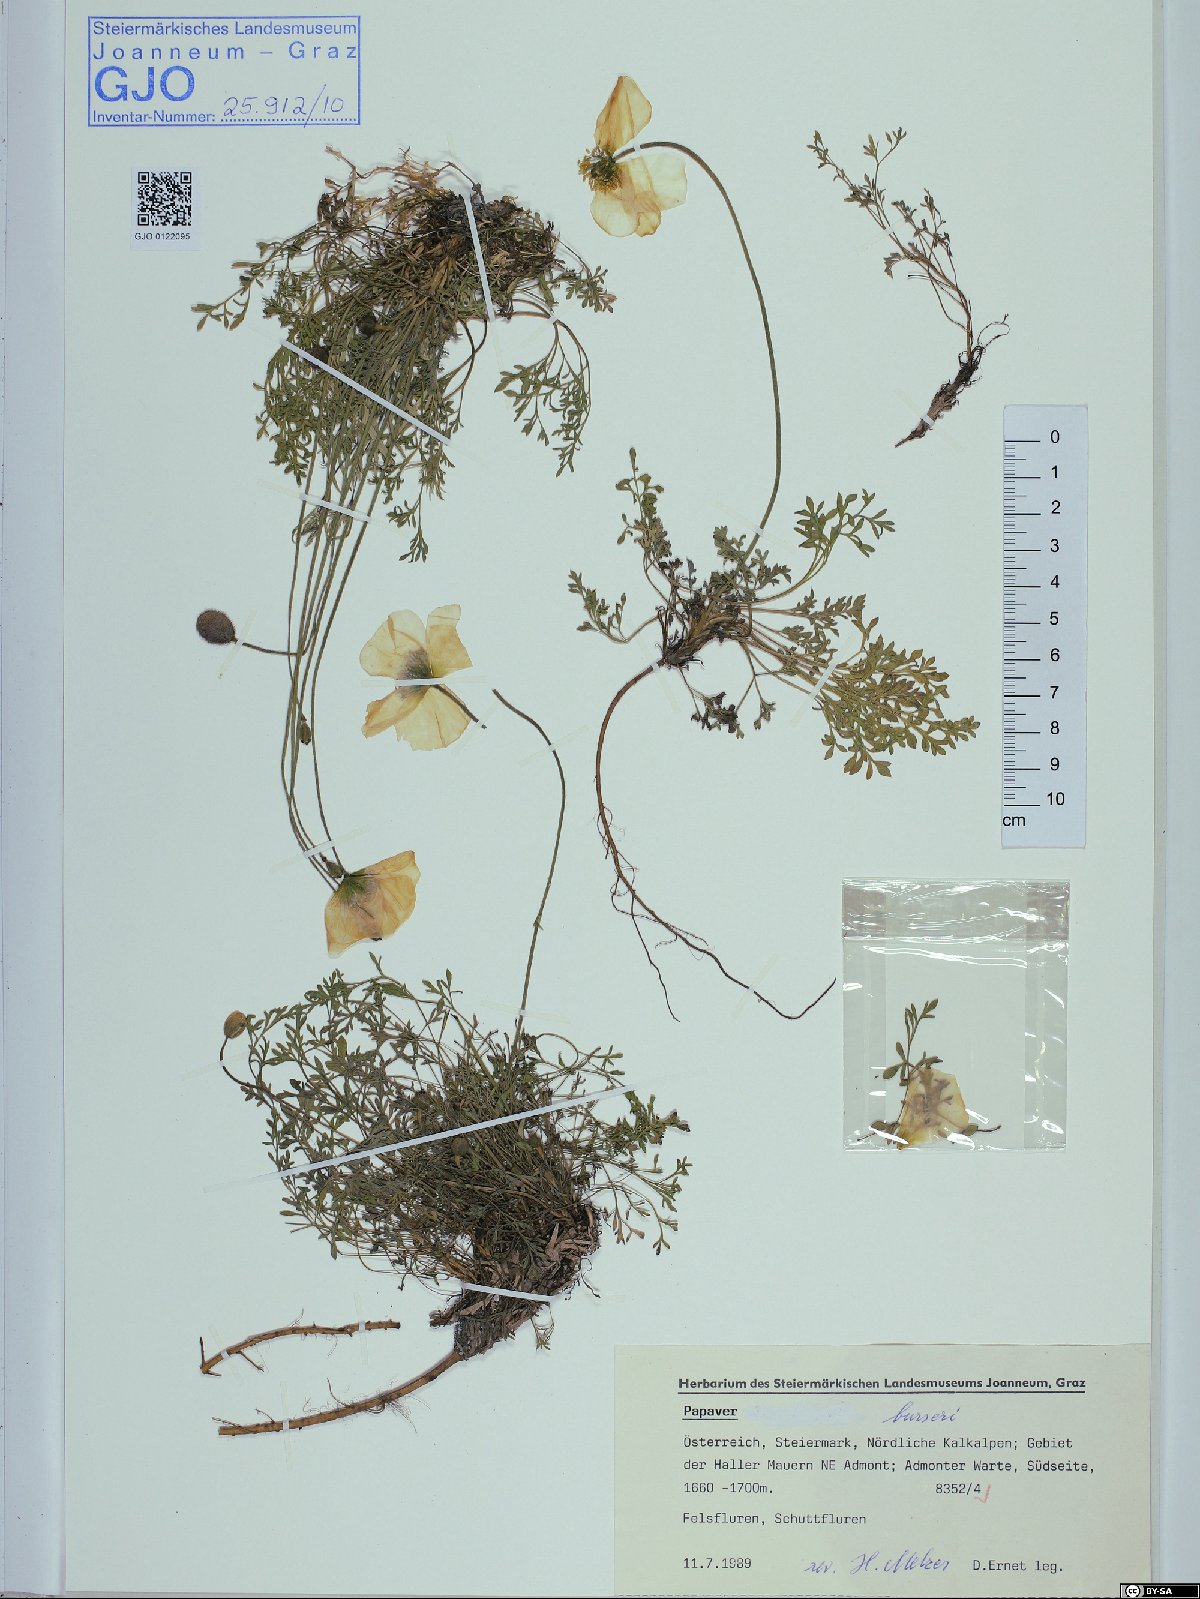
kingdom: Plantae
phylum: Tracheophyta
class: Magnoliopsida
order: Ranunculales
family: Papaveraceae
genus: Papaver
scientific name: Papaver alpinum
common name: Austrian poppy
